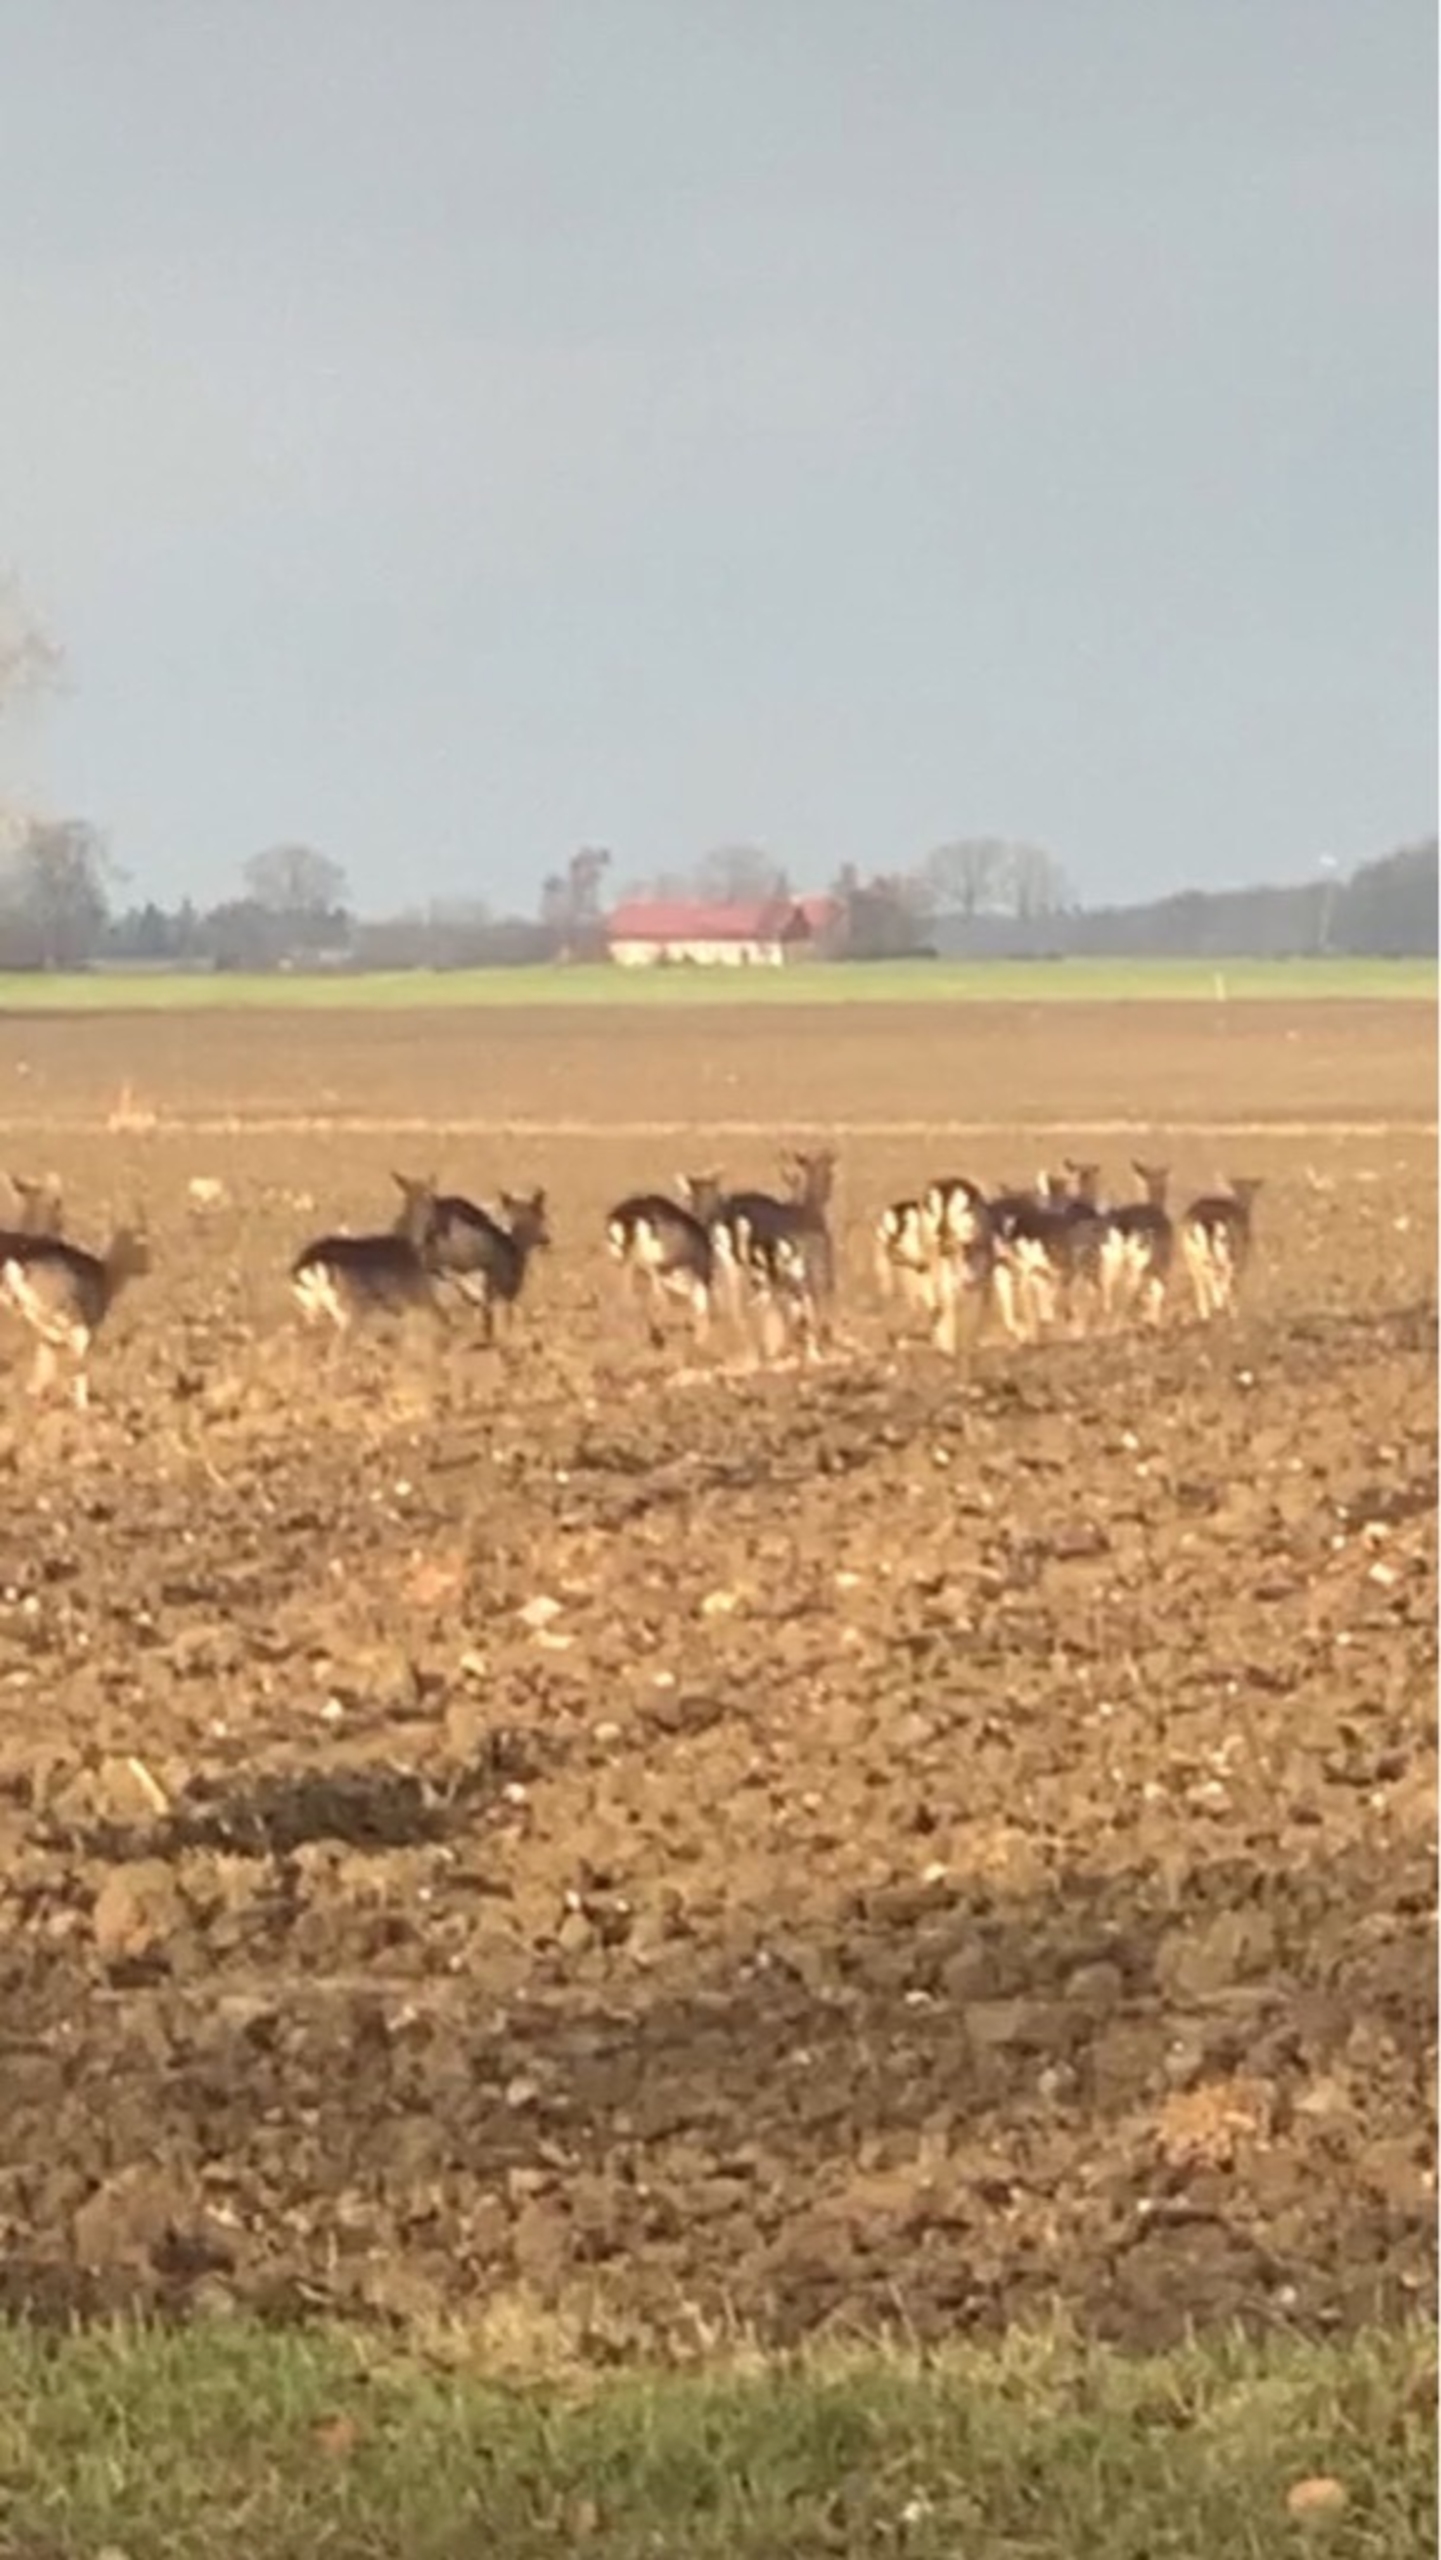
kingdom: Animalia
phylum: Chordata
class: Mammalia
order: Artiodactyla
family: Cervidae
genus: Dama
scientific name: Dama dama
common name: Dådyr
